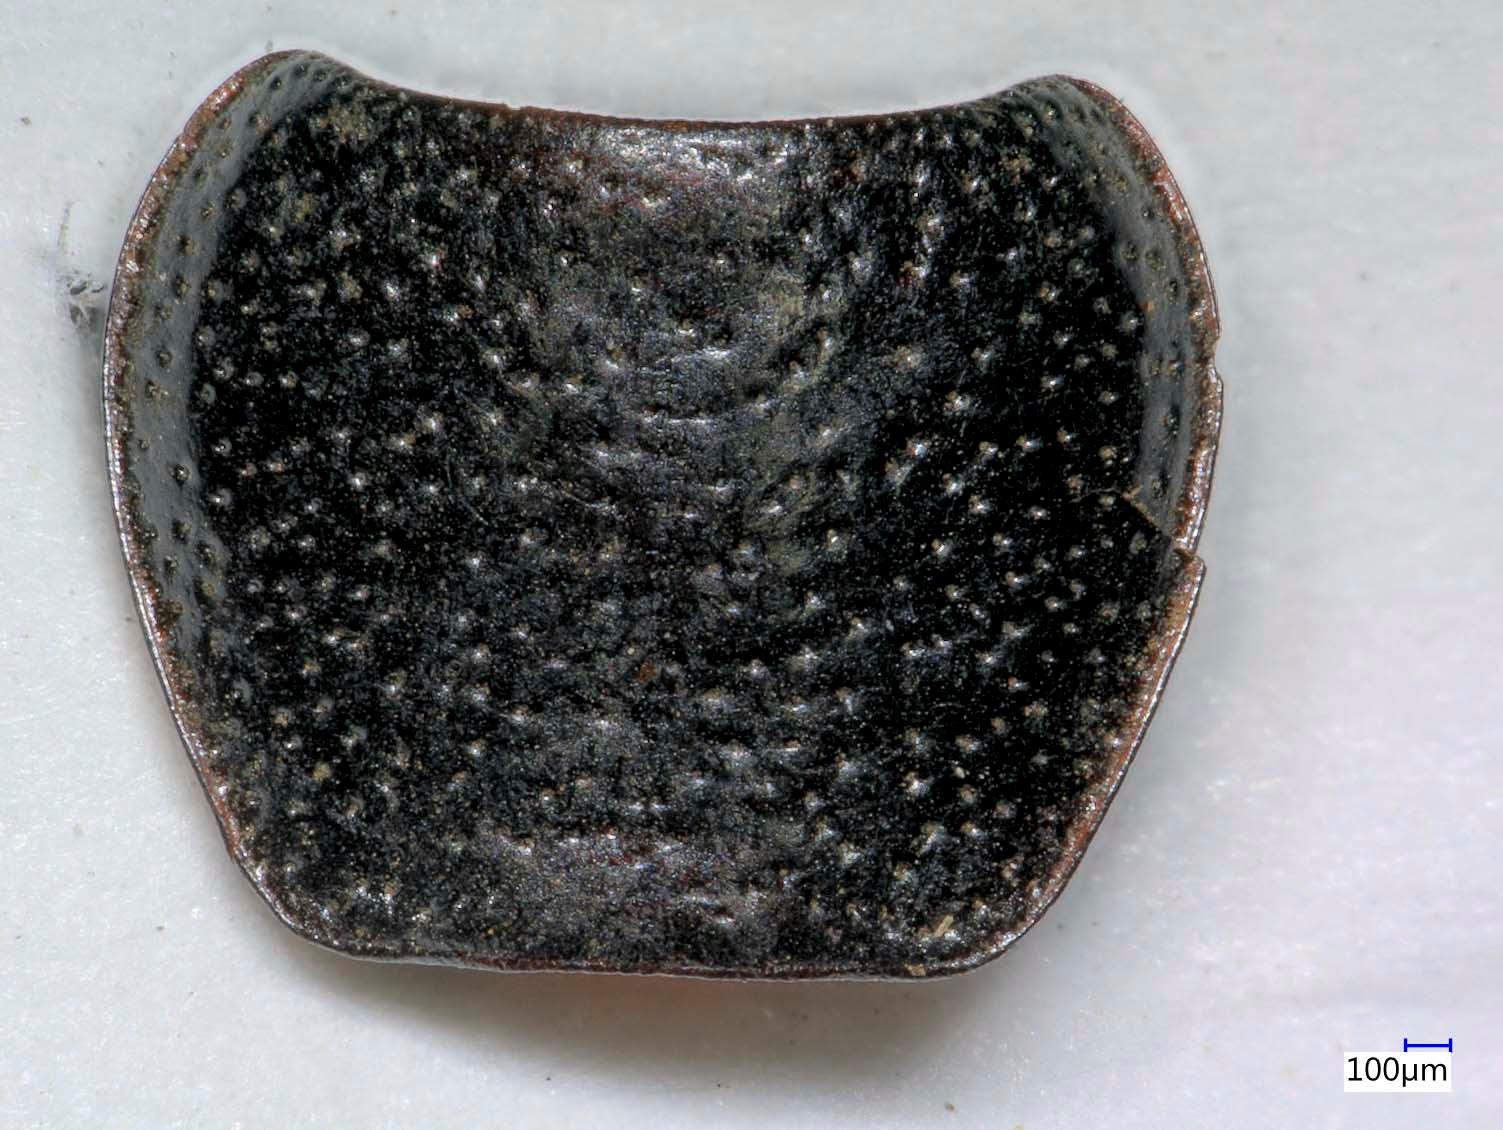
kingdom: Animalia
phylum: Arthropoda
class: Insecta
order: Coleoptera
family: Carabidae
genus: Dicheirus
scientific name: Dicheirus dilatatus
